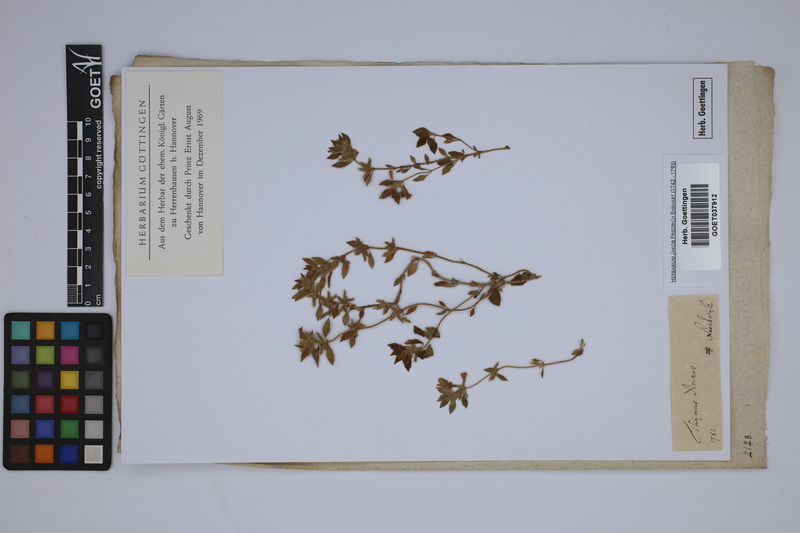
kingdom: Plantae
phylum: Tracheophyta
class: Magnoliopsida
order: Lamiales
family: Lamiaceae
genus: Clinopodium
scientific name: Clinopodium acinos
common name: Basil thyme
